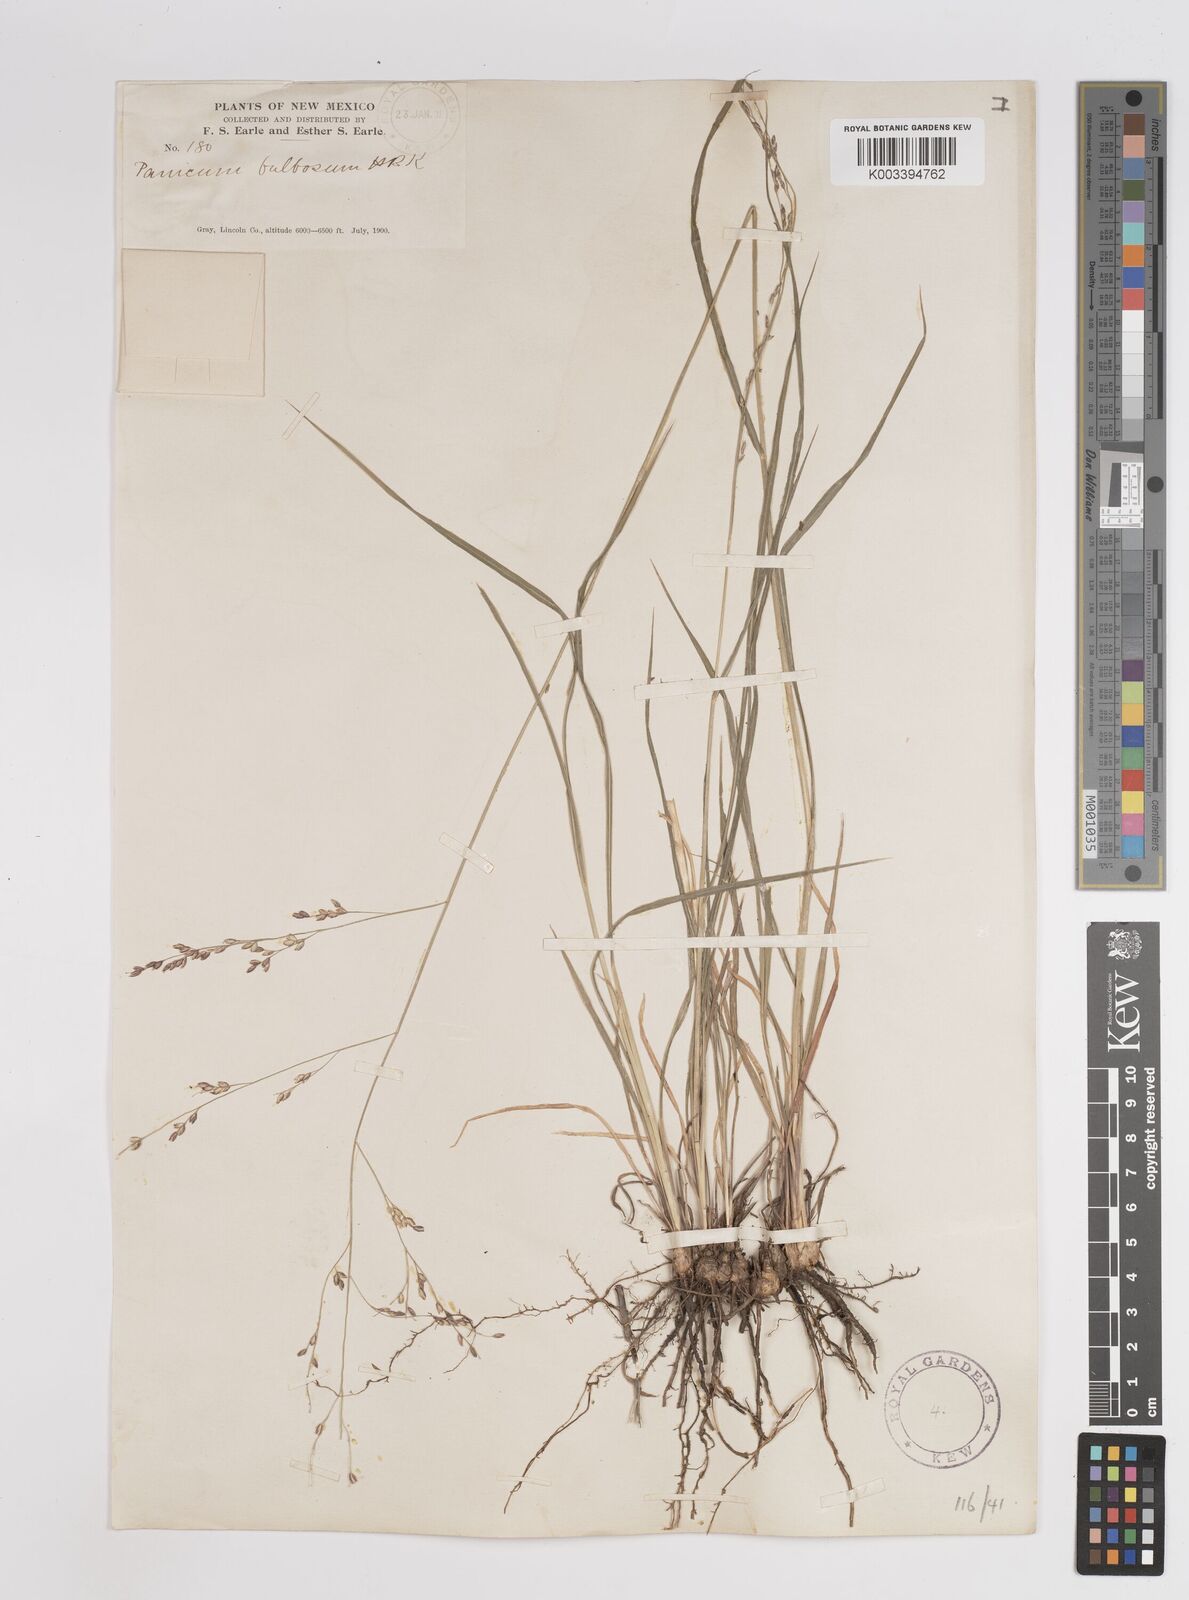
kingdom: Plantae
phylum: Tracheophyta
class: Liliopsida
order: Poales
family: Poaceae
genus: Zuloagaea
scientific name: Zuloagaea bulbosa
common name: Canyon panic grass
